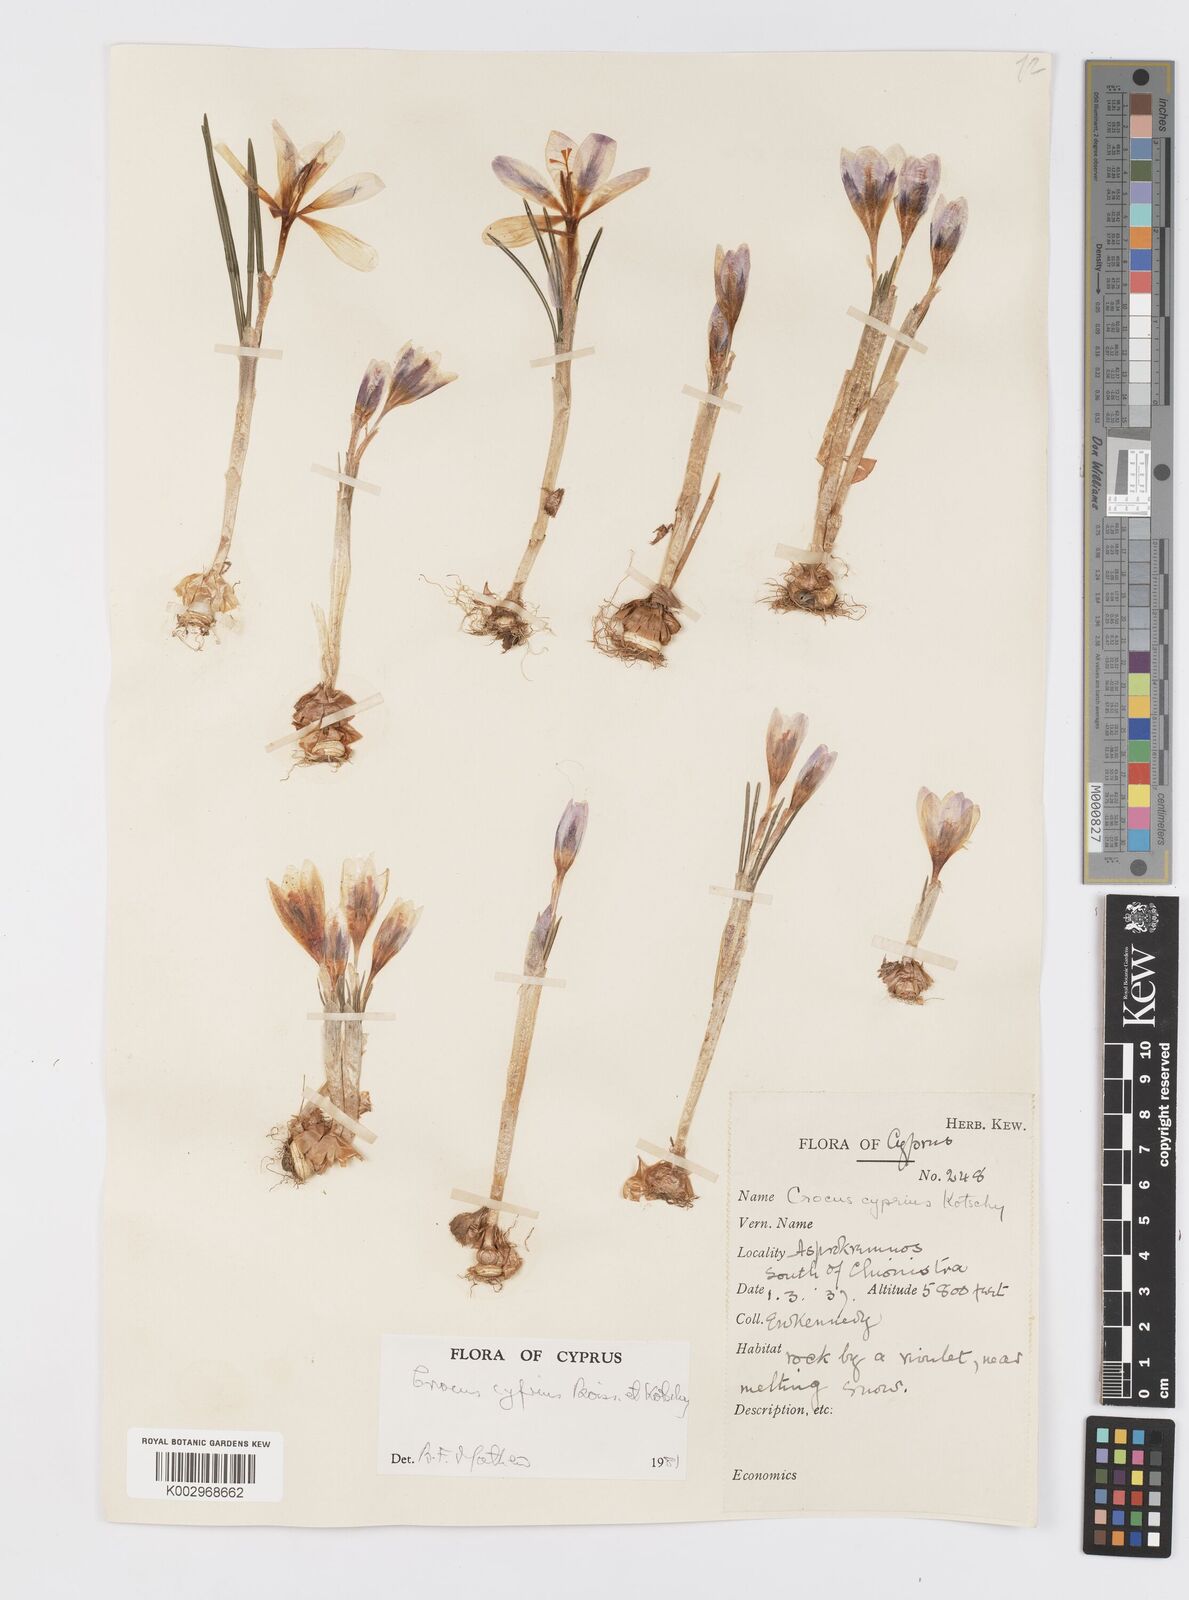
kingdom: Plantae
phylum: Tracheophyta
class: Liliopsida
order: Asparagales
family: Iridaceae
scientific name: Iridaceae
